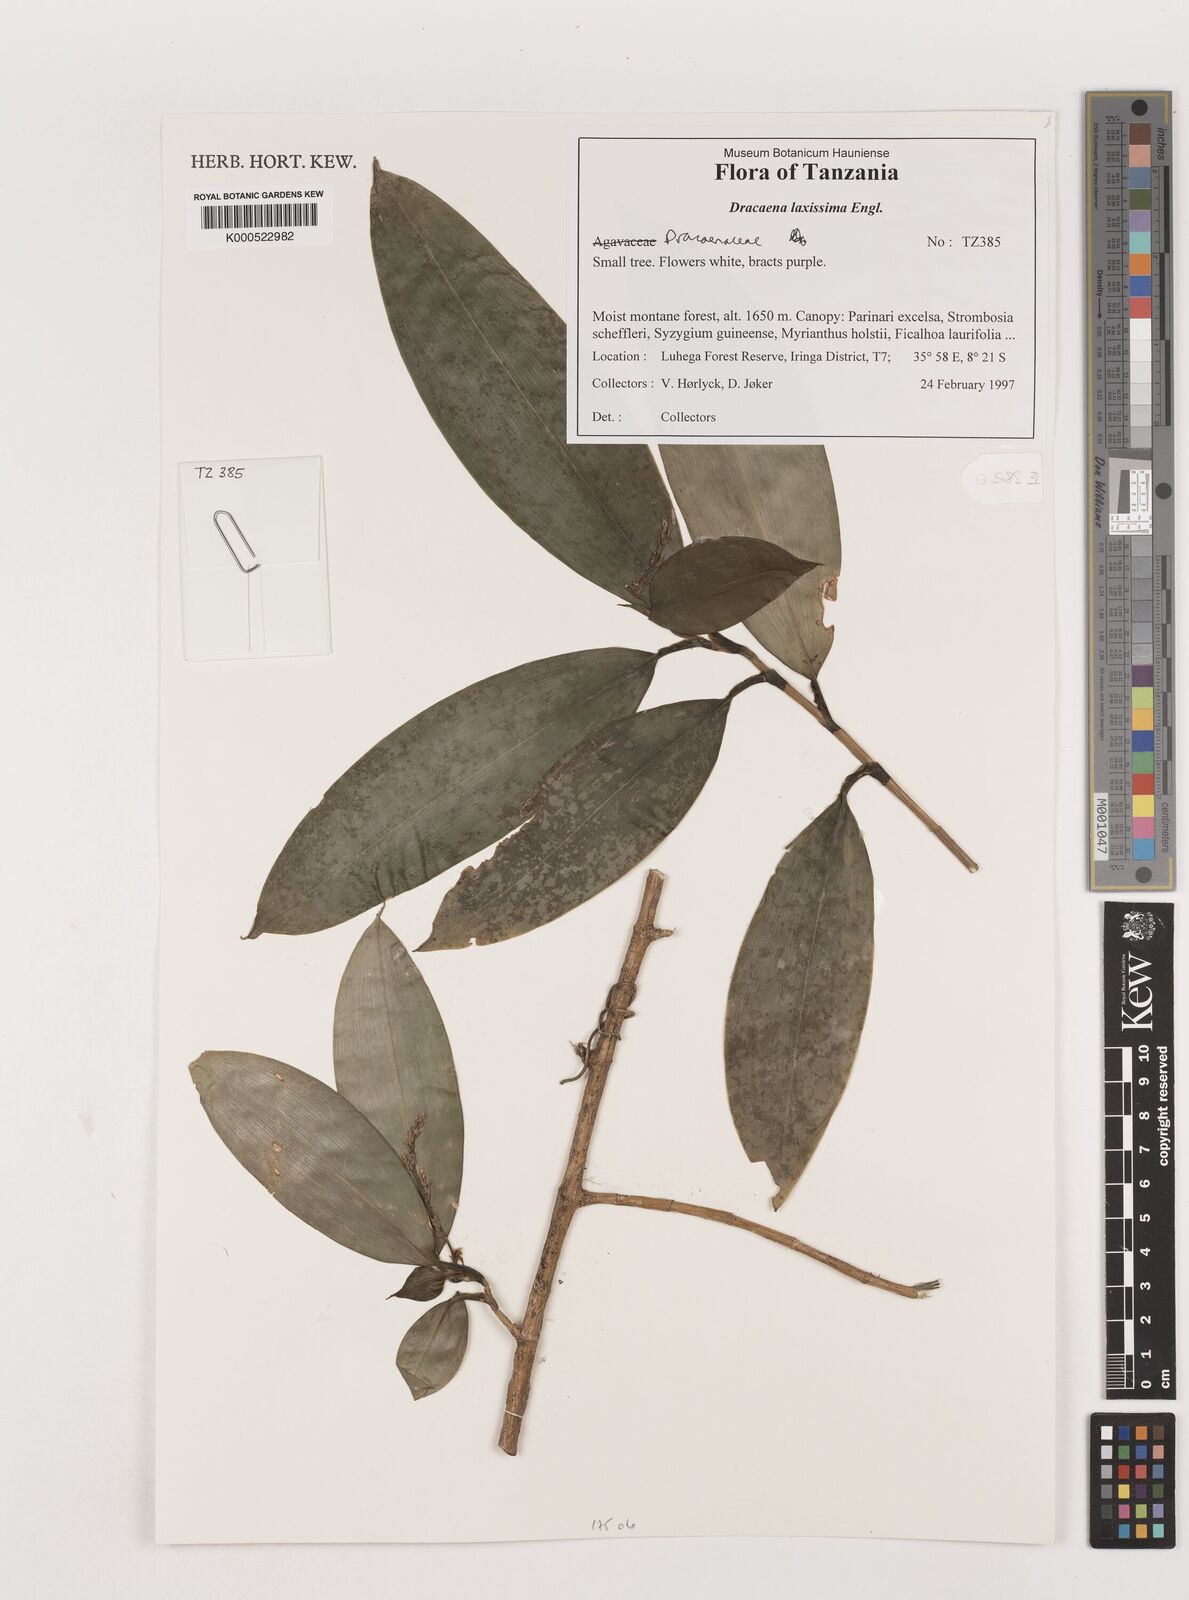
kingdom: Plantae
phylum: Tracheophyta
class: Liliopsida
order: Asparagales
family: Asparagaceae
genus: Dracaena
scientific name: Dracaena laxissima
